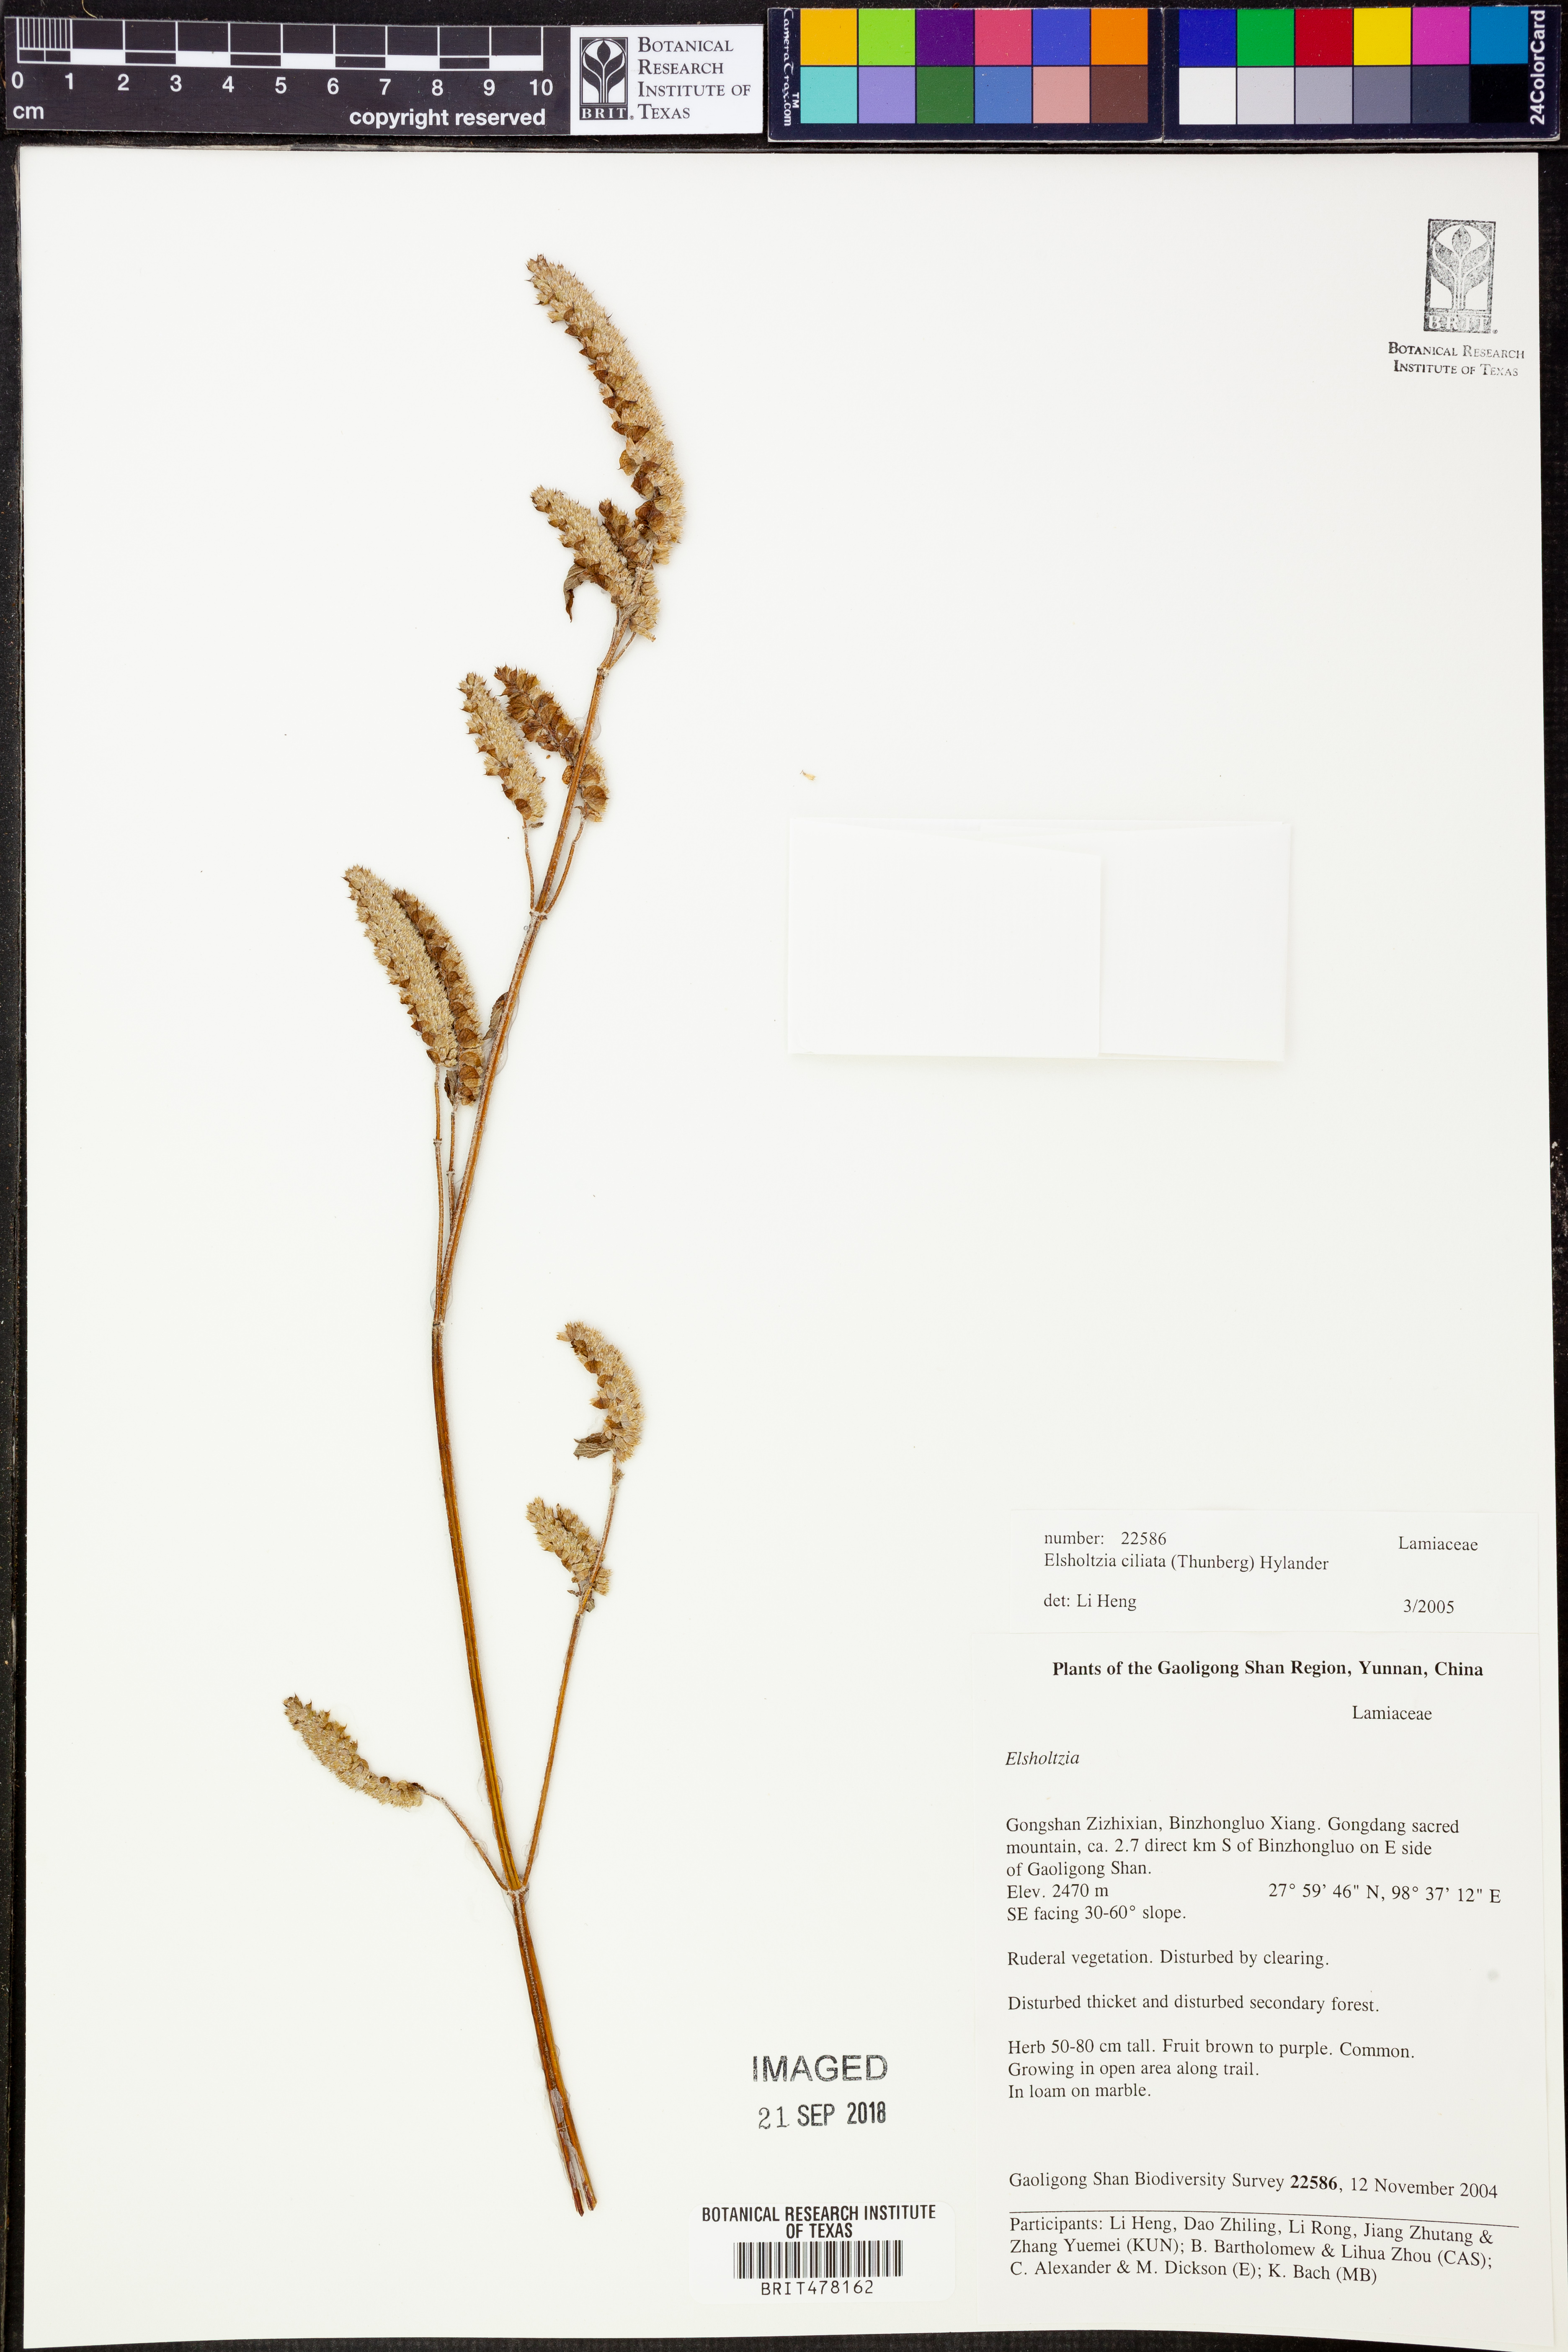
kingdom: Plantae
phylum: Tracheophyta
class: Magnoliopsida
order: Lamiales
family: Lamiaceae
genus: Elsholtzia
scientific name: Elsholtzia ciliata
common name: Ciliate elsholtzia
